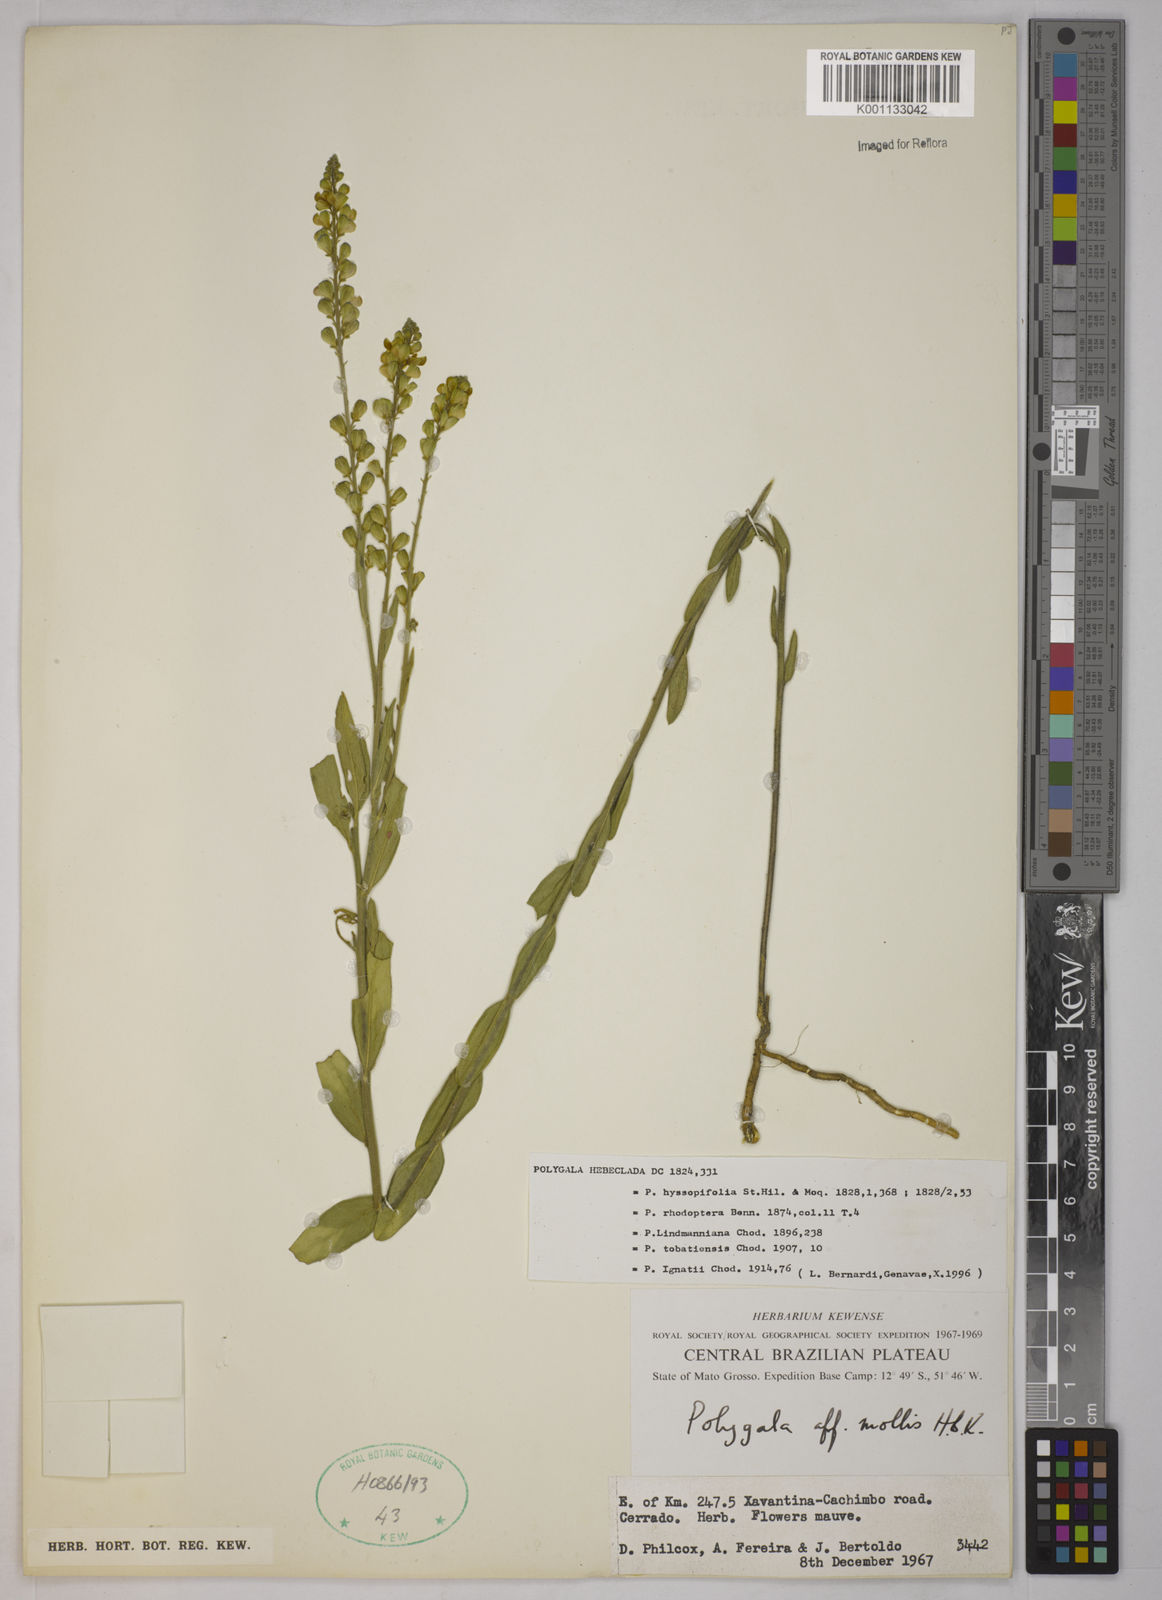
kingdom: Plantae
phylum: Tracheophyta
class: Magnoliopsida
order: Fabales
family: Polygalaceae
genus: Asemeia
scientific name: Asemeia hebeclada
